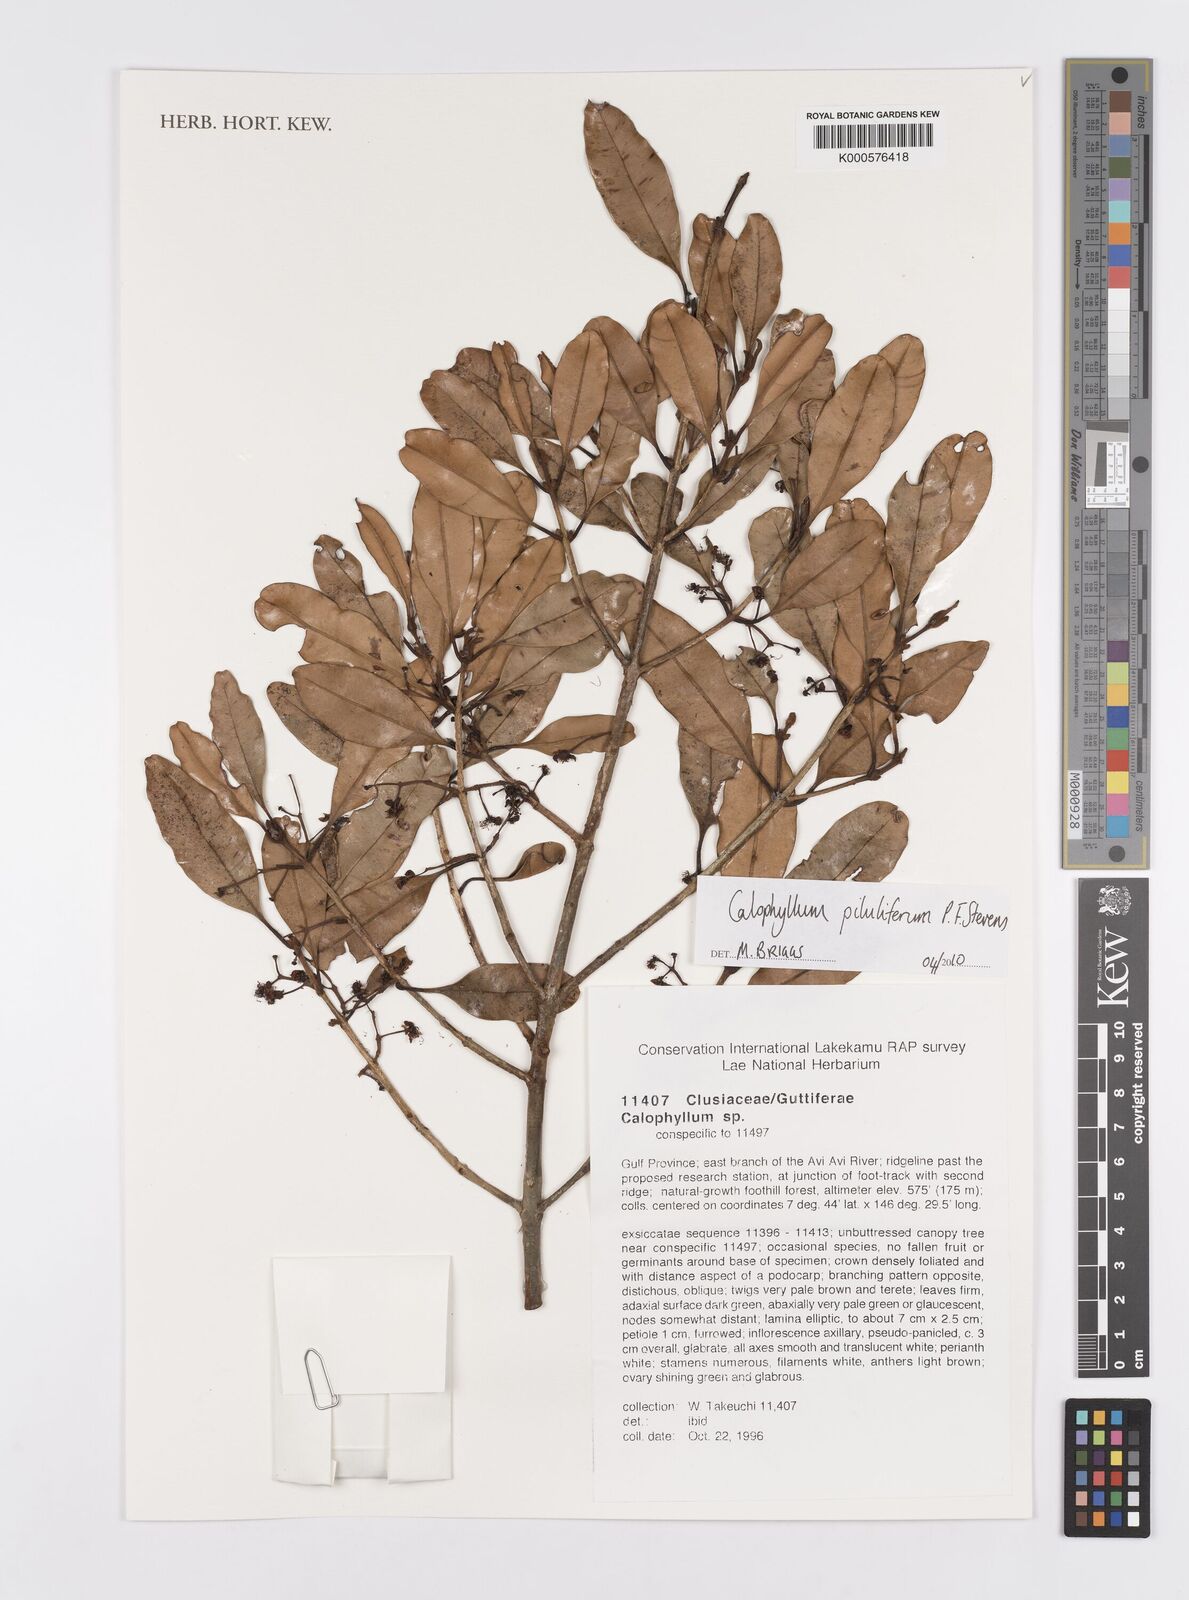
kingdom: Plantae
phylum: Tracheophyta
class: Magnoliopsida
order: Malpighiales
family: Calophyllaceae
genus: Calophyllum
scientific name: Calophyllum piluliferum
